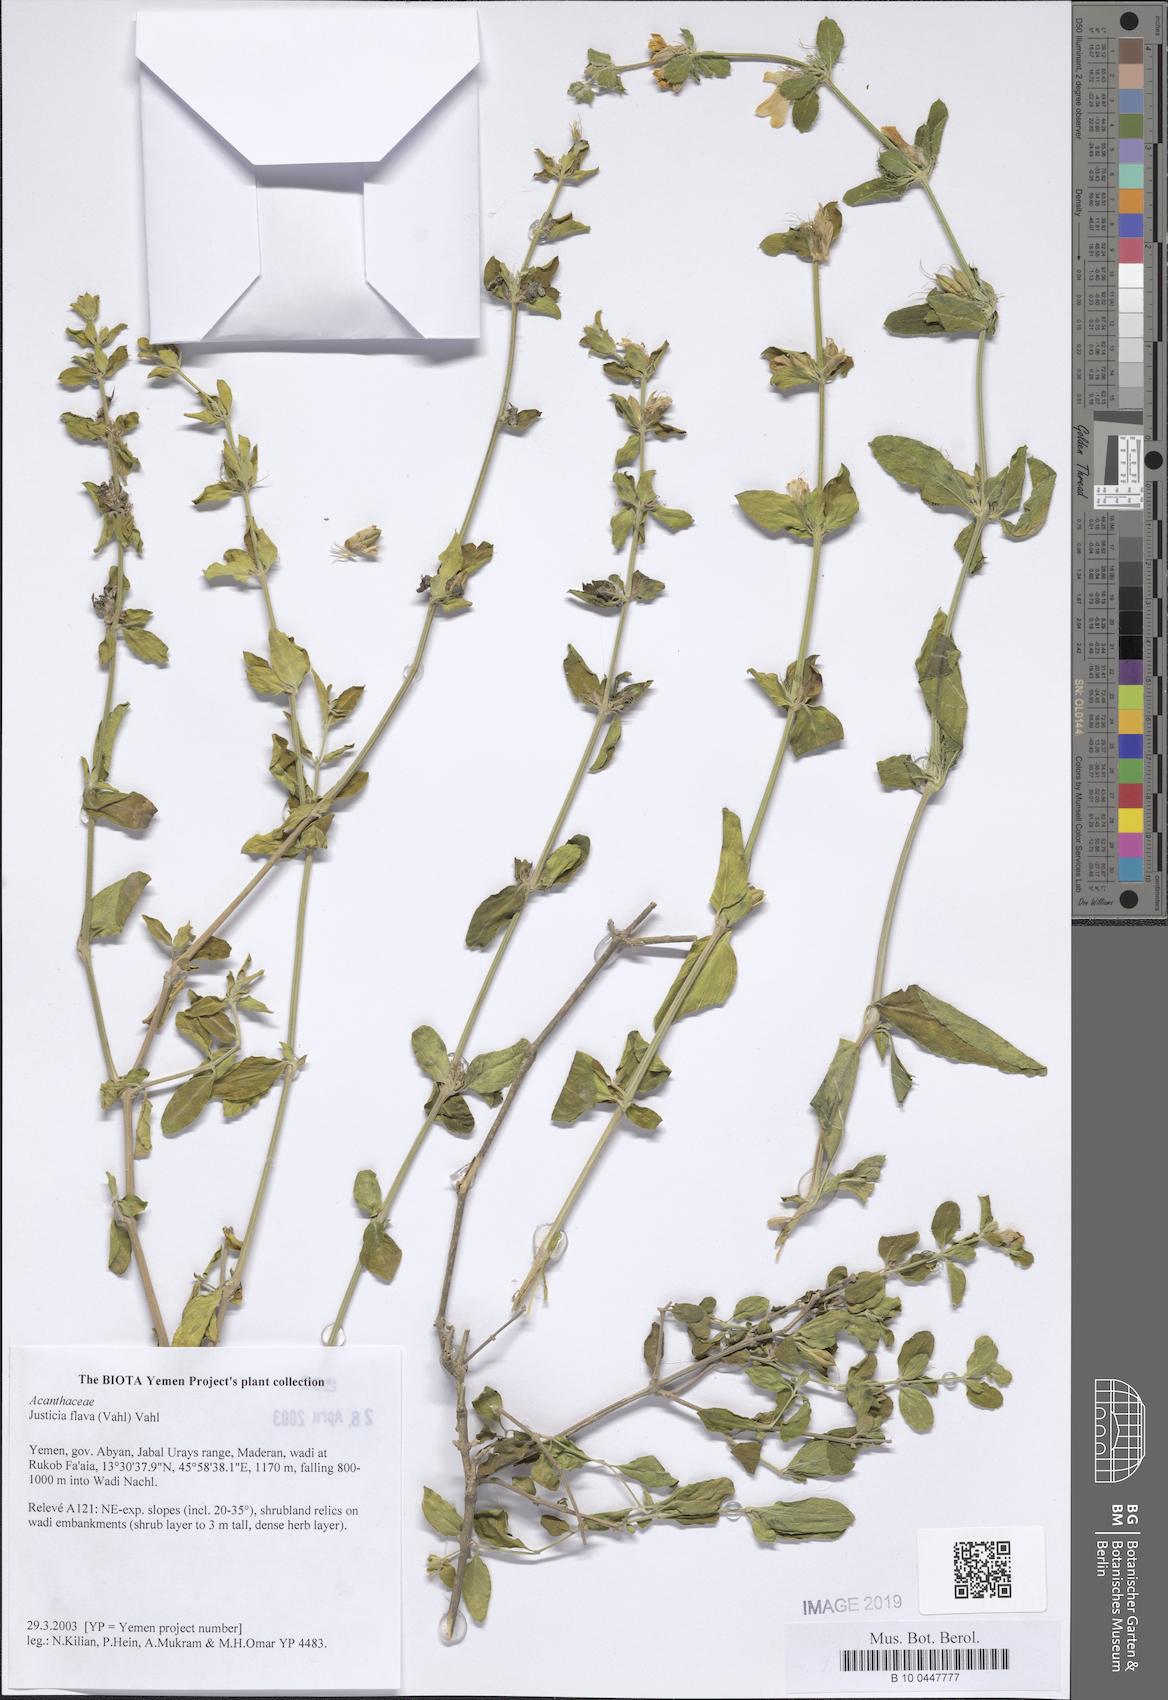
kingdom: Plantae
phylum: Tracheophyta
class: Magnoliopsida
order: Lamiales
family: Acanthaceae
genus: Justicia
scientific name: Justicia flava
